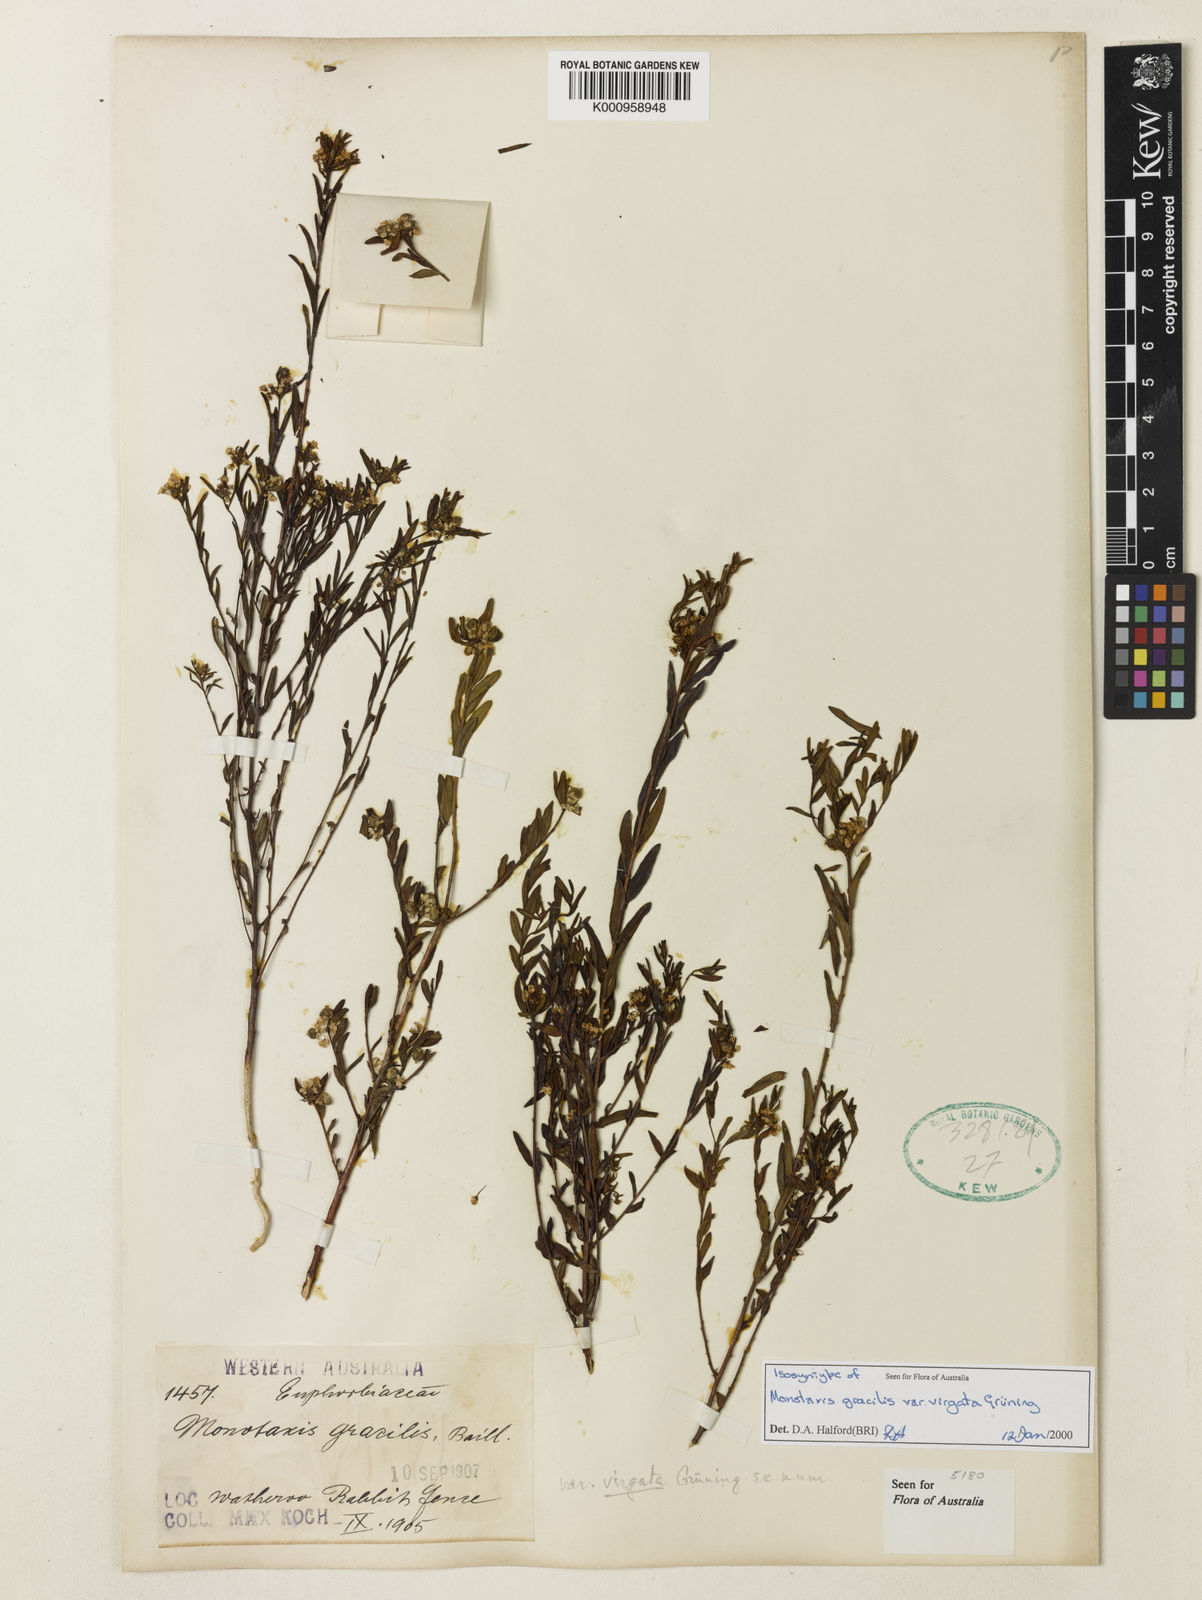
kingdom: Plantae
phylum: Tracheophyta
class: Magnoliopsida
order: Malpighiales
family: Euphorbiaceae
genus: Monotaxis
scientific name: Monotaxis
